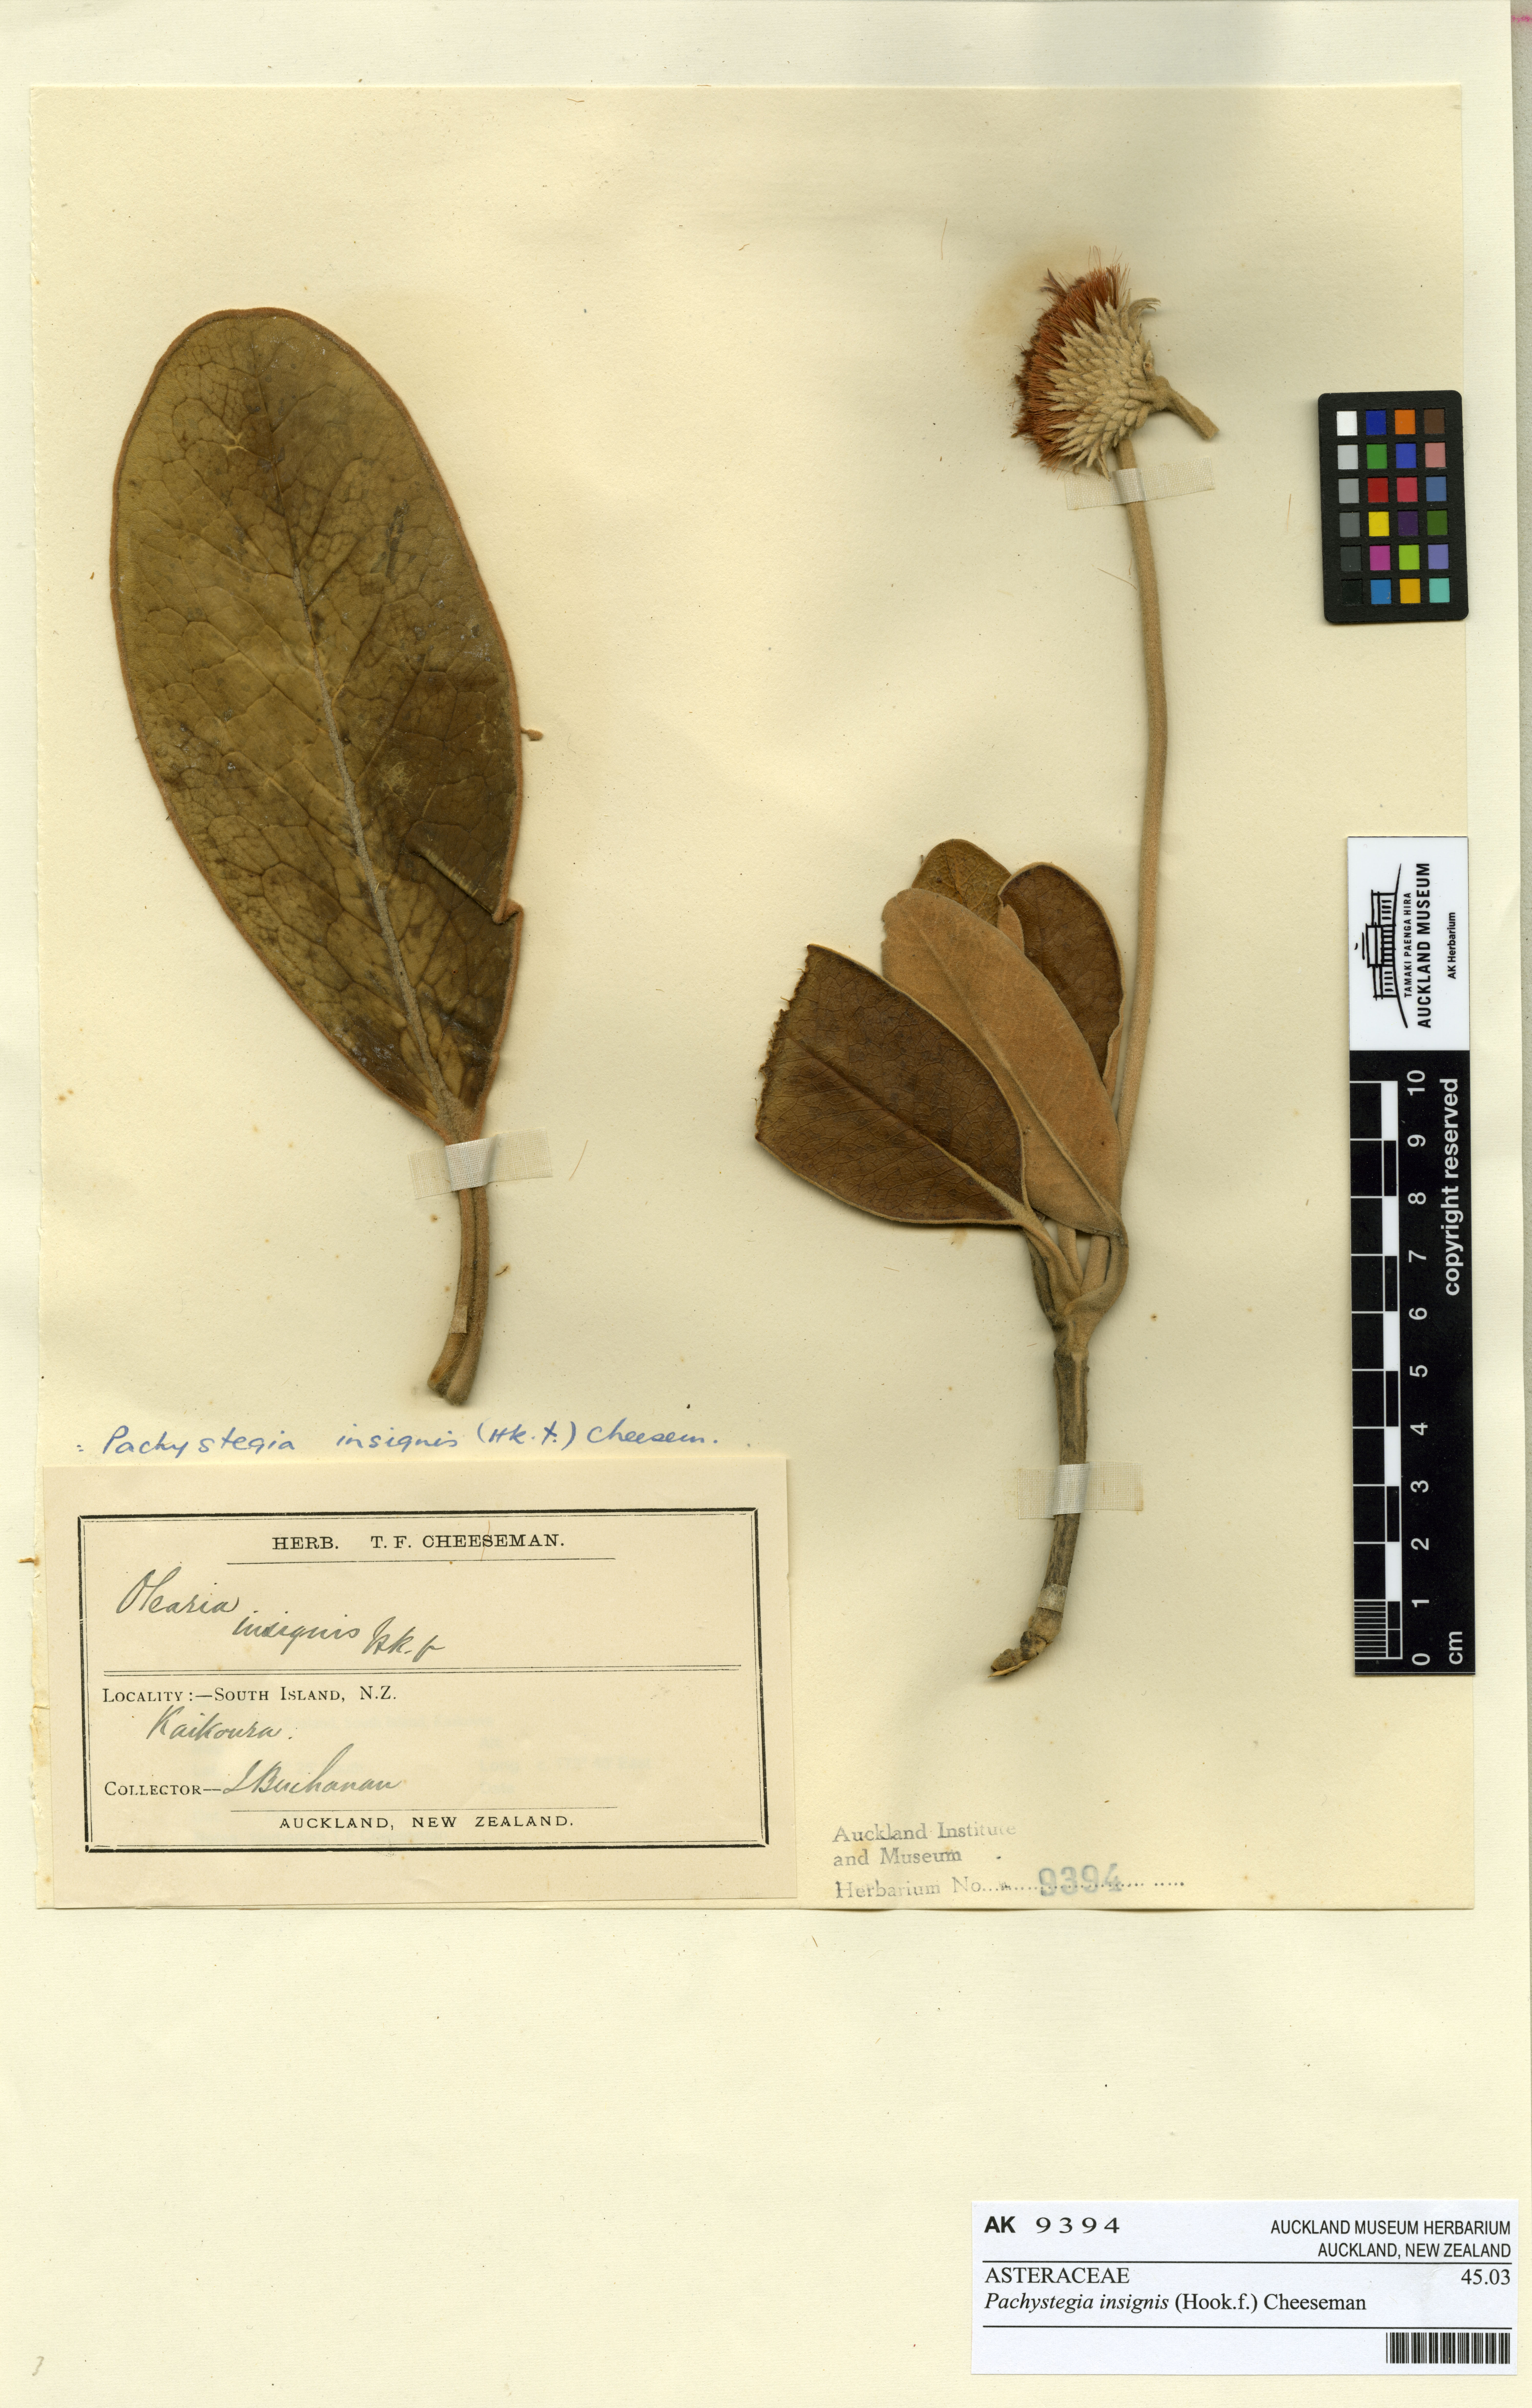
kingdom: Plantae
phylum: Tracheophyta
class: Magnoliopsida
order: Asterales
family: Asteraceae
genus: Pachystegia
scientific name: Pachystegia insignis
